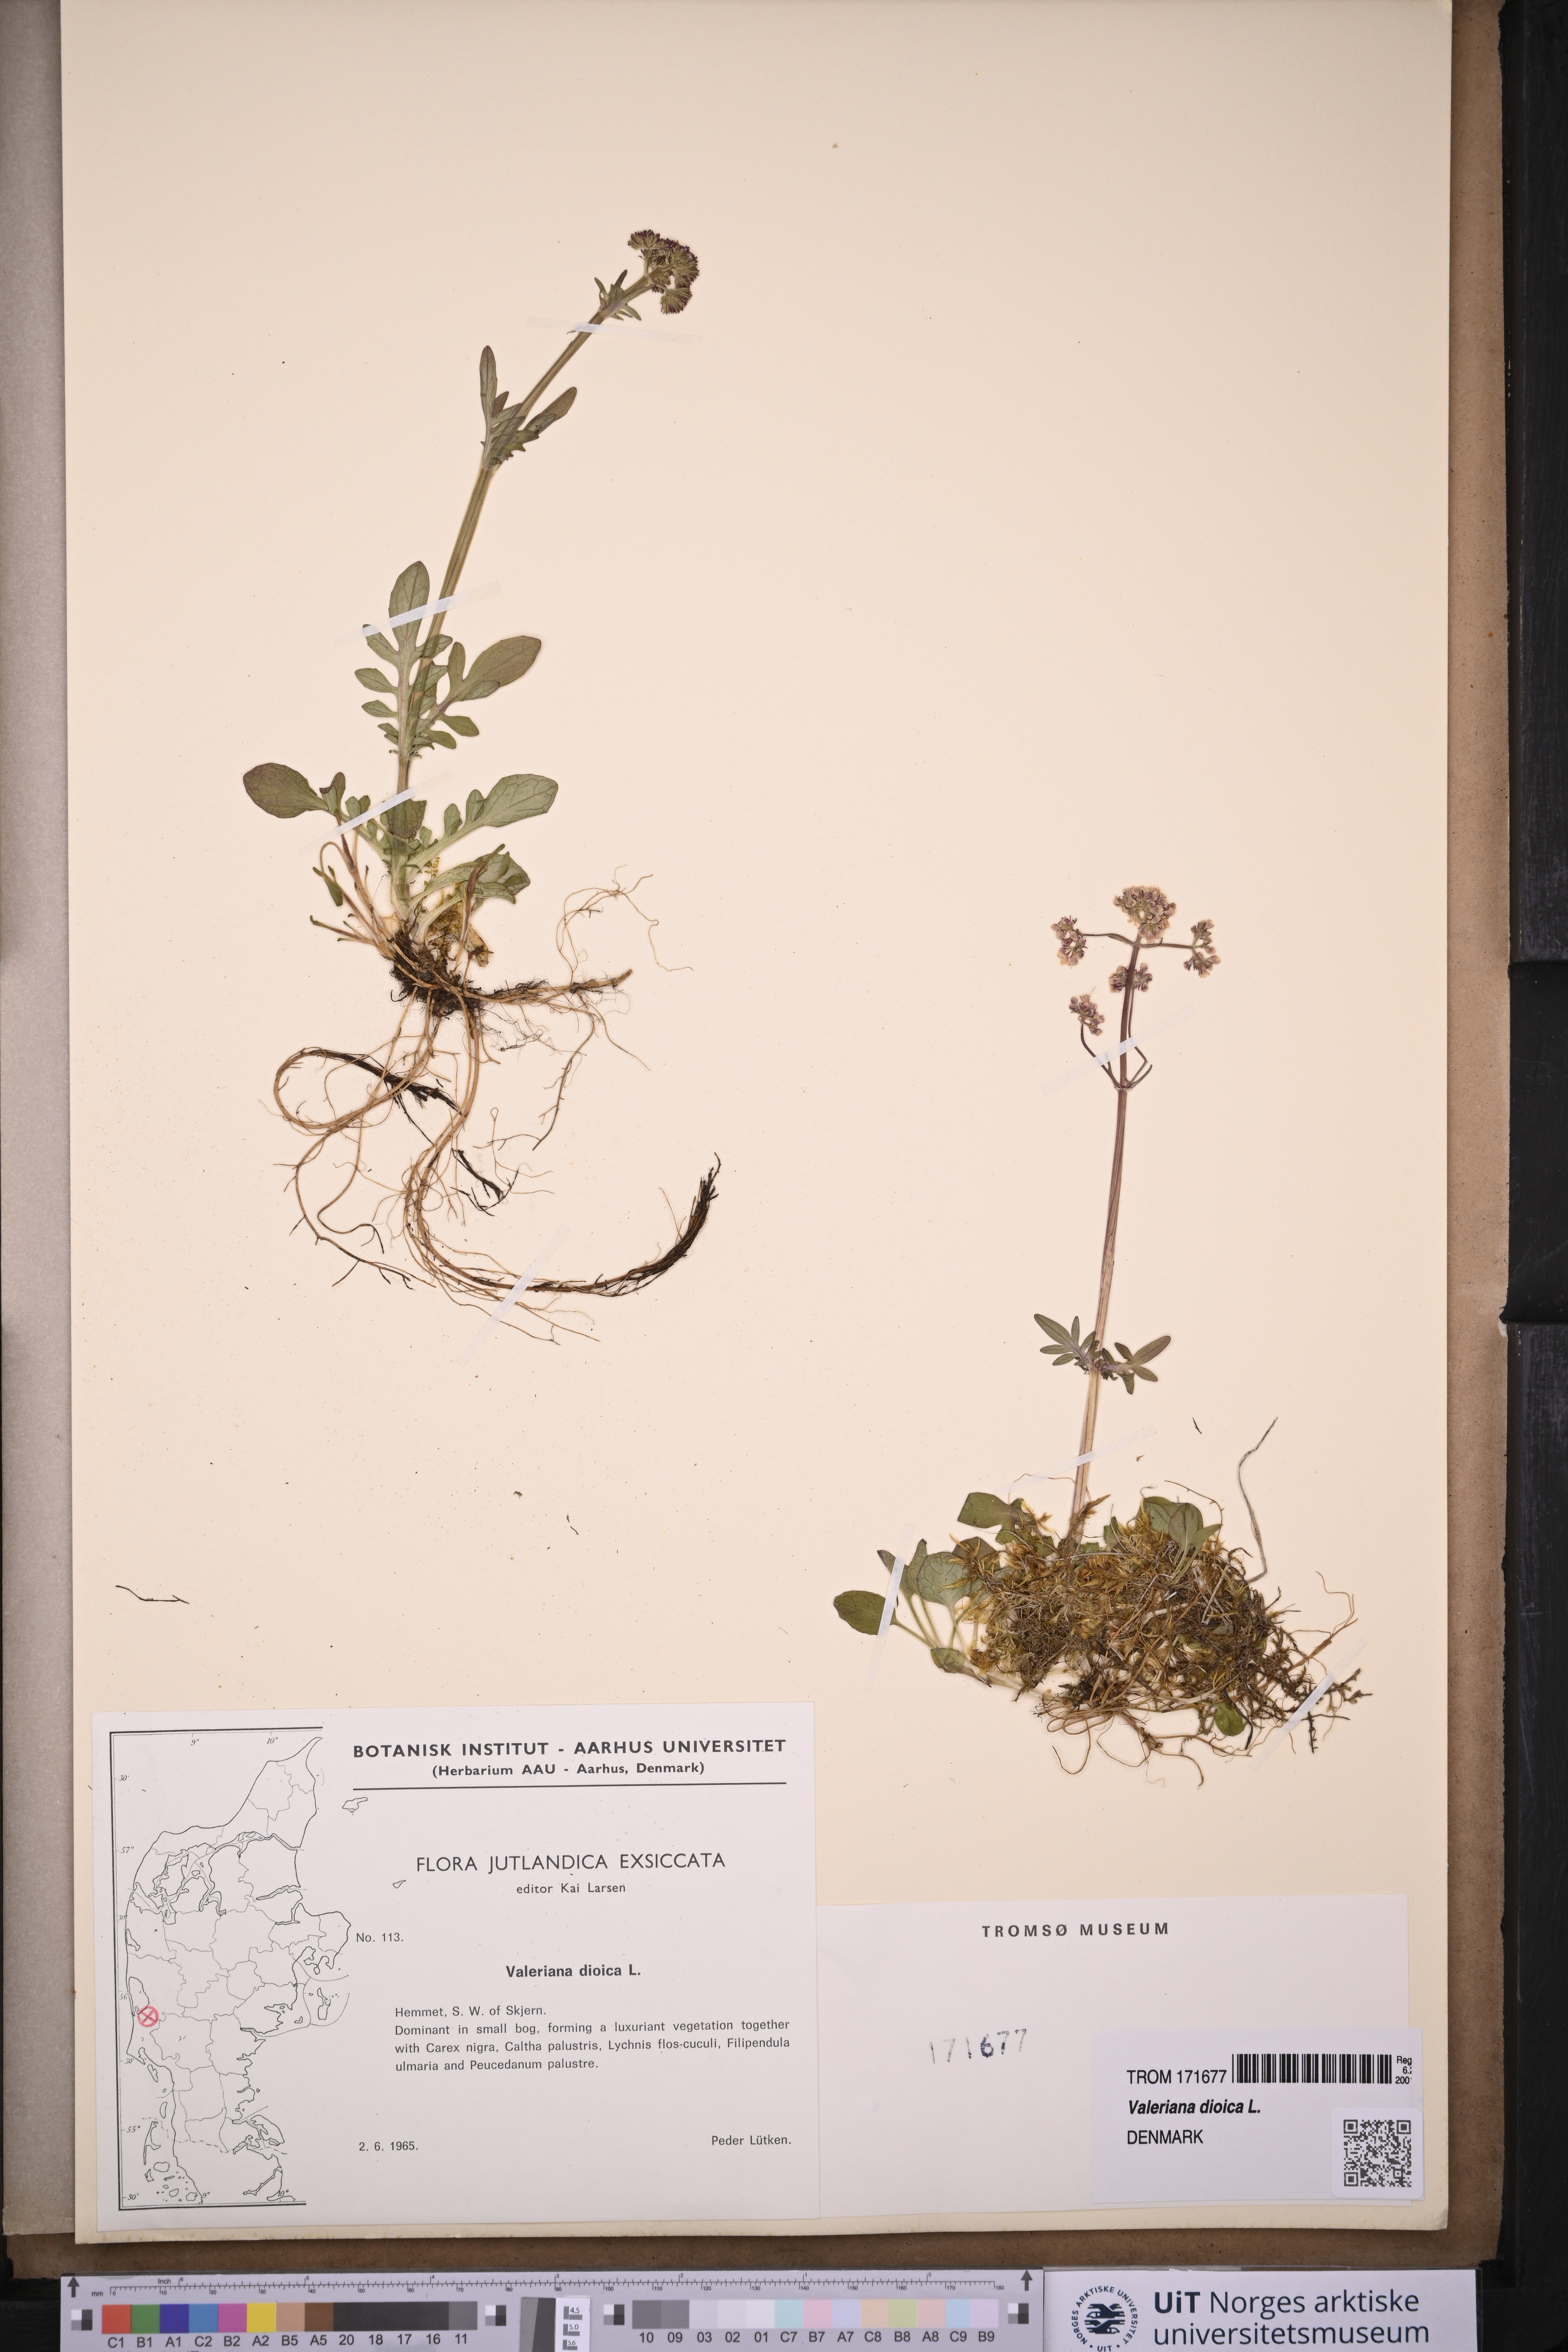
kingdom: Plantae
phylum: Tracheophyta
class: Magnoliopsida
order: Dipsacales
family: Caprifoliaceae
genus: Valeriana
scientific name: Valeriana dioica
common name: Marsh valerian
